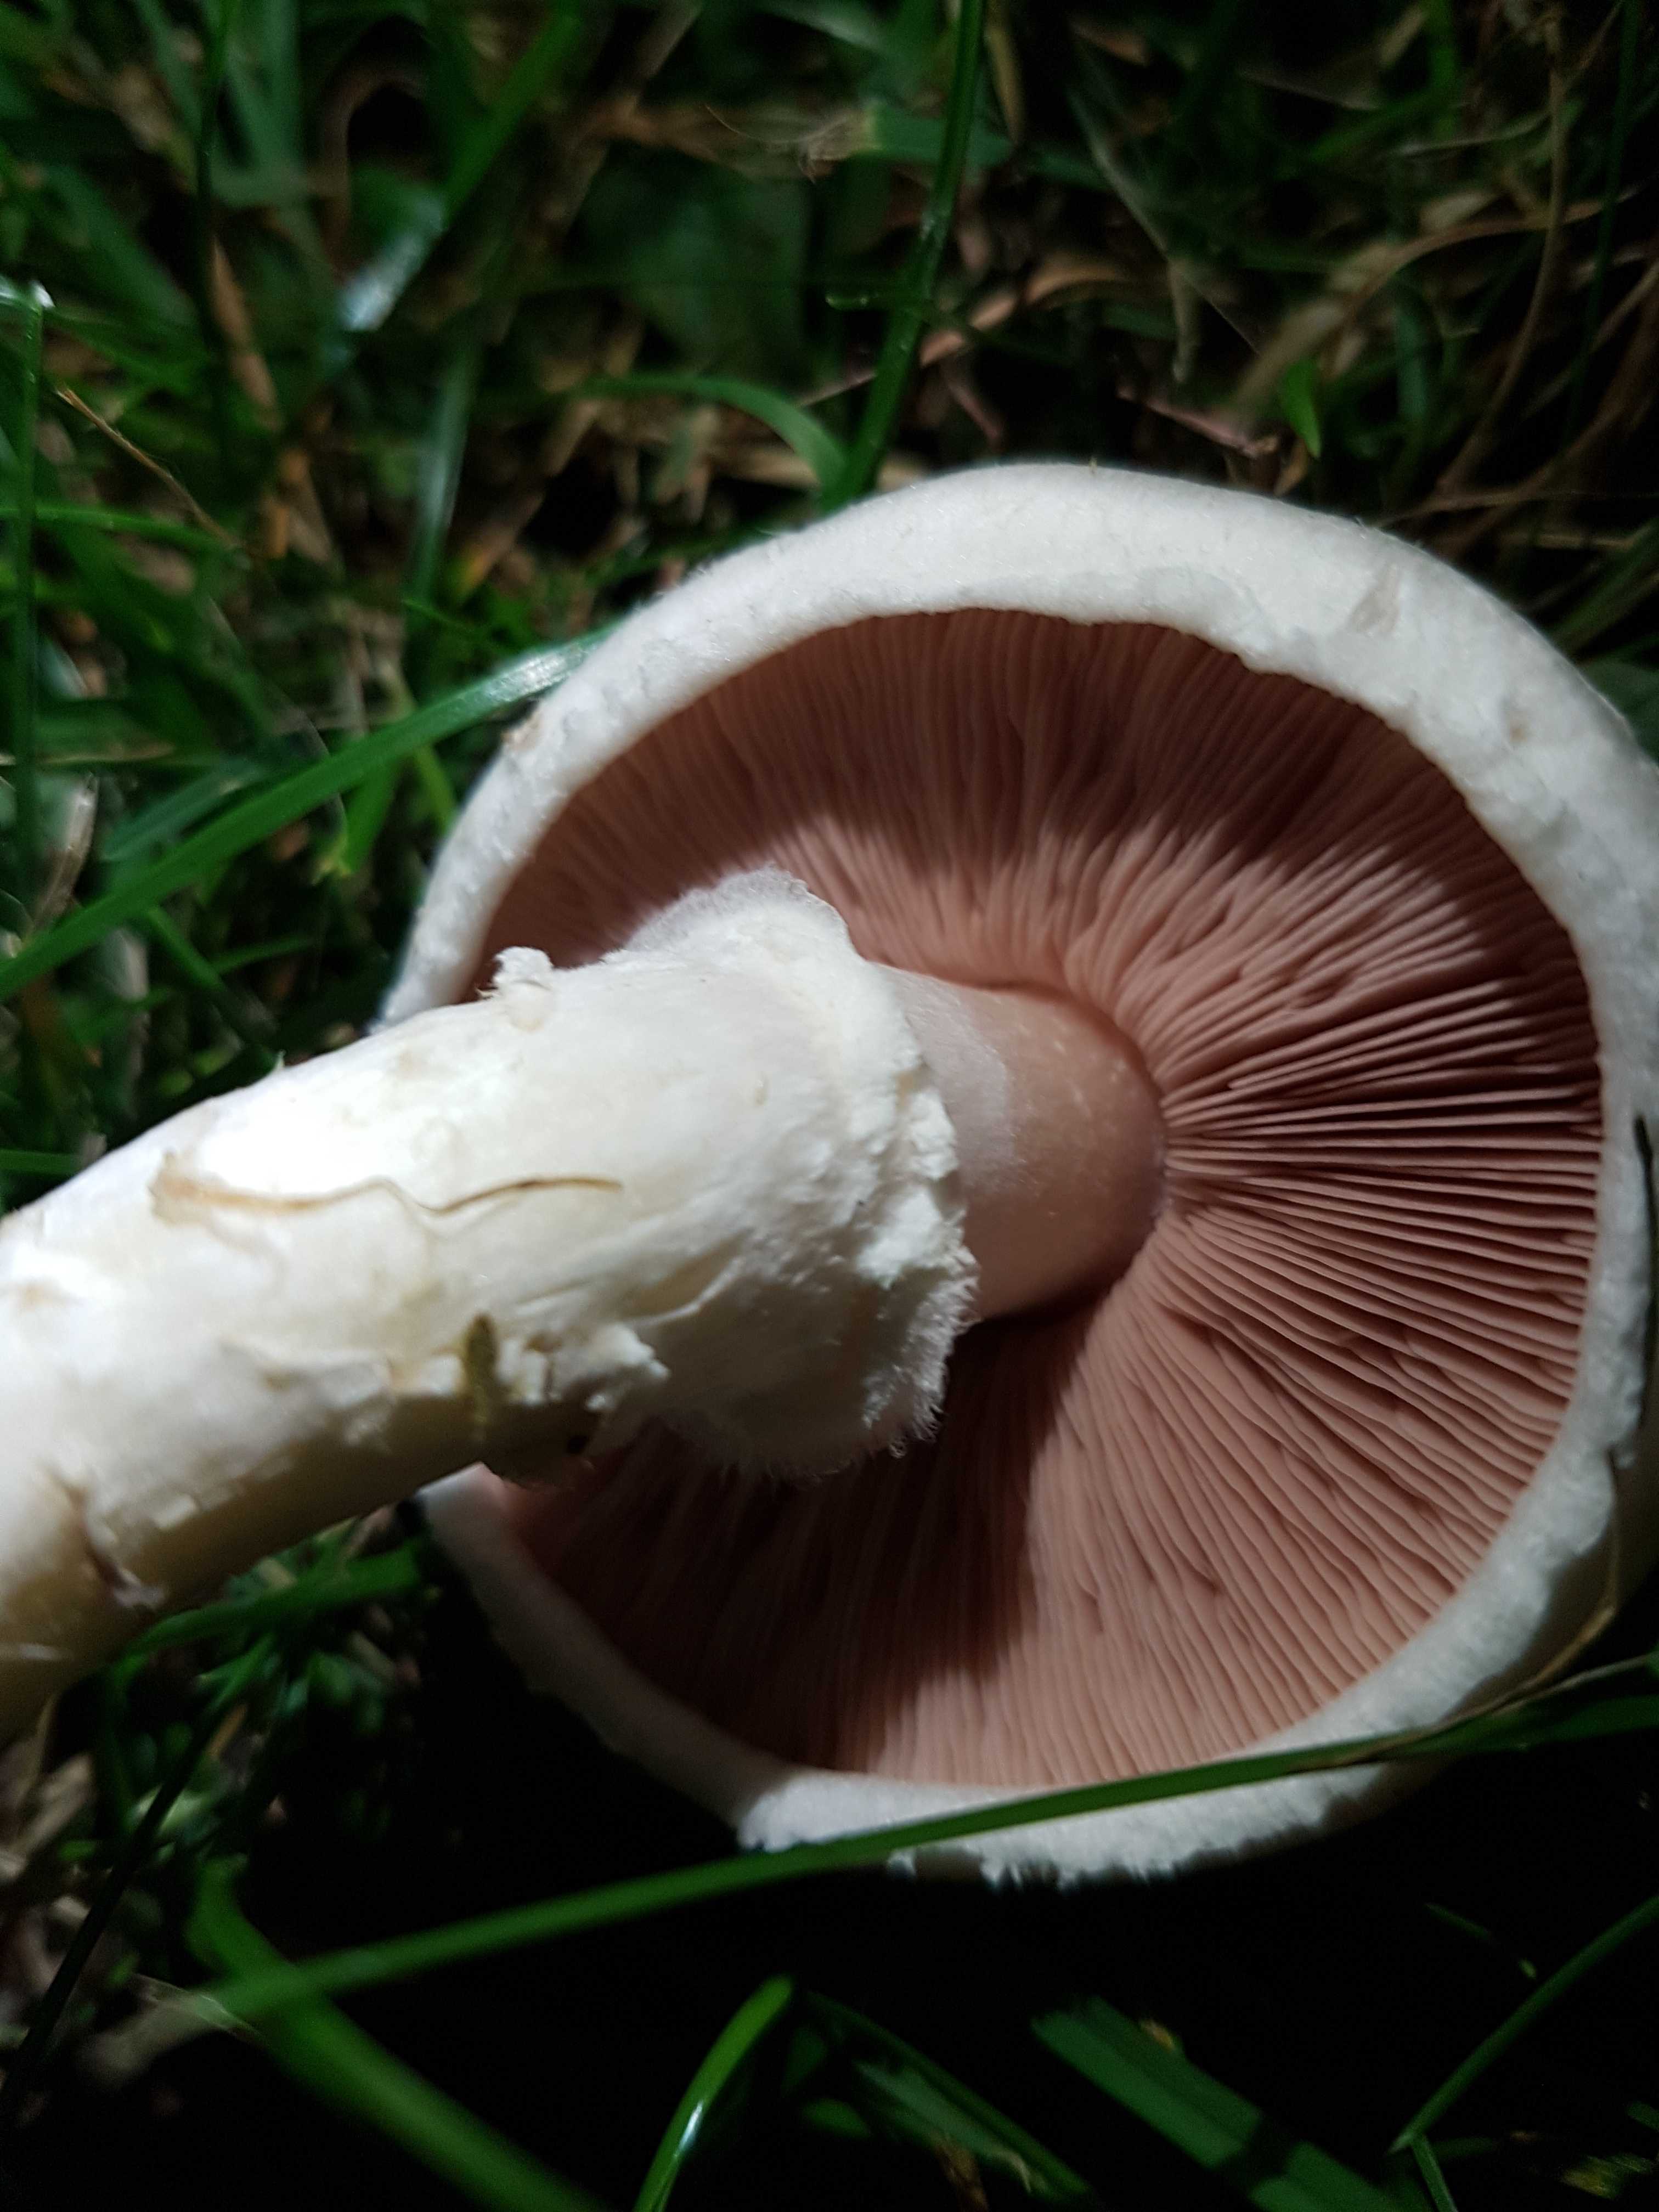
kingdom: Fungi
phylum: Basidiomycota
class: Agaricomycetes
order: Agaricales
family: Agaricaceae
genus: Agaricus
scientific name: Agaricus campestris
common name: mark-champignon
